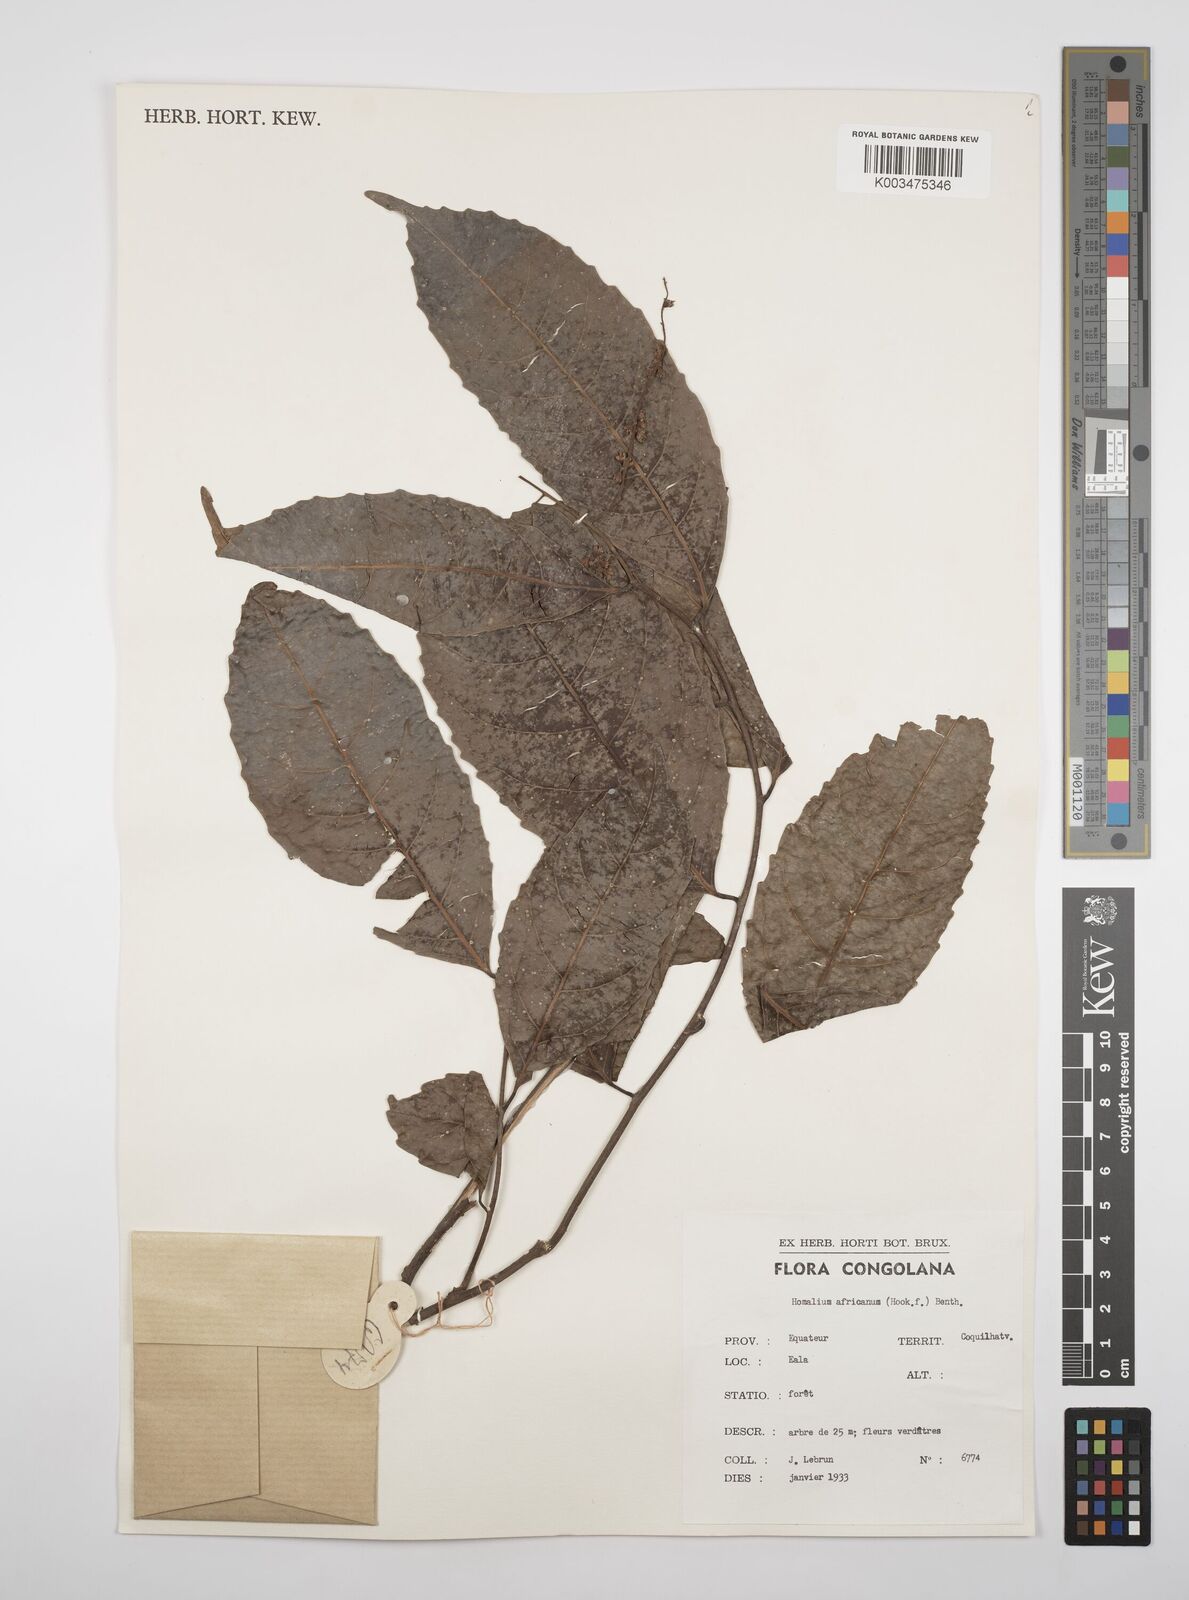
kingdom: Plantae
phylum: Tracheophyta
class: Magnoliopsida
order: Malpighiales
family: Salicaceae
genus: Homalium
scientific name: Homalium africanum
